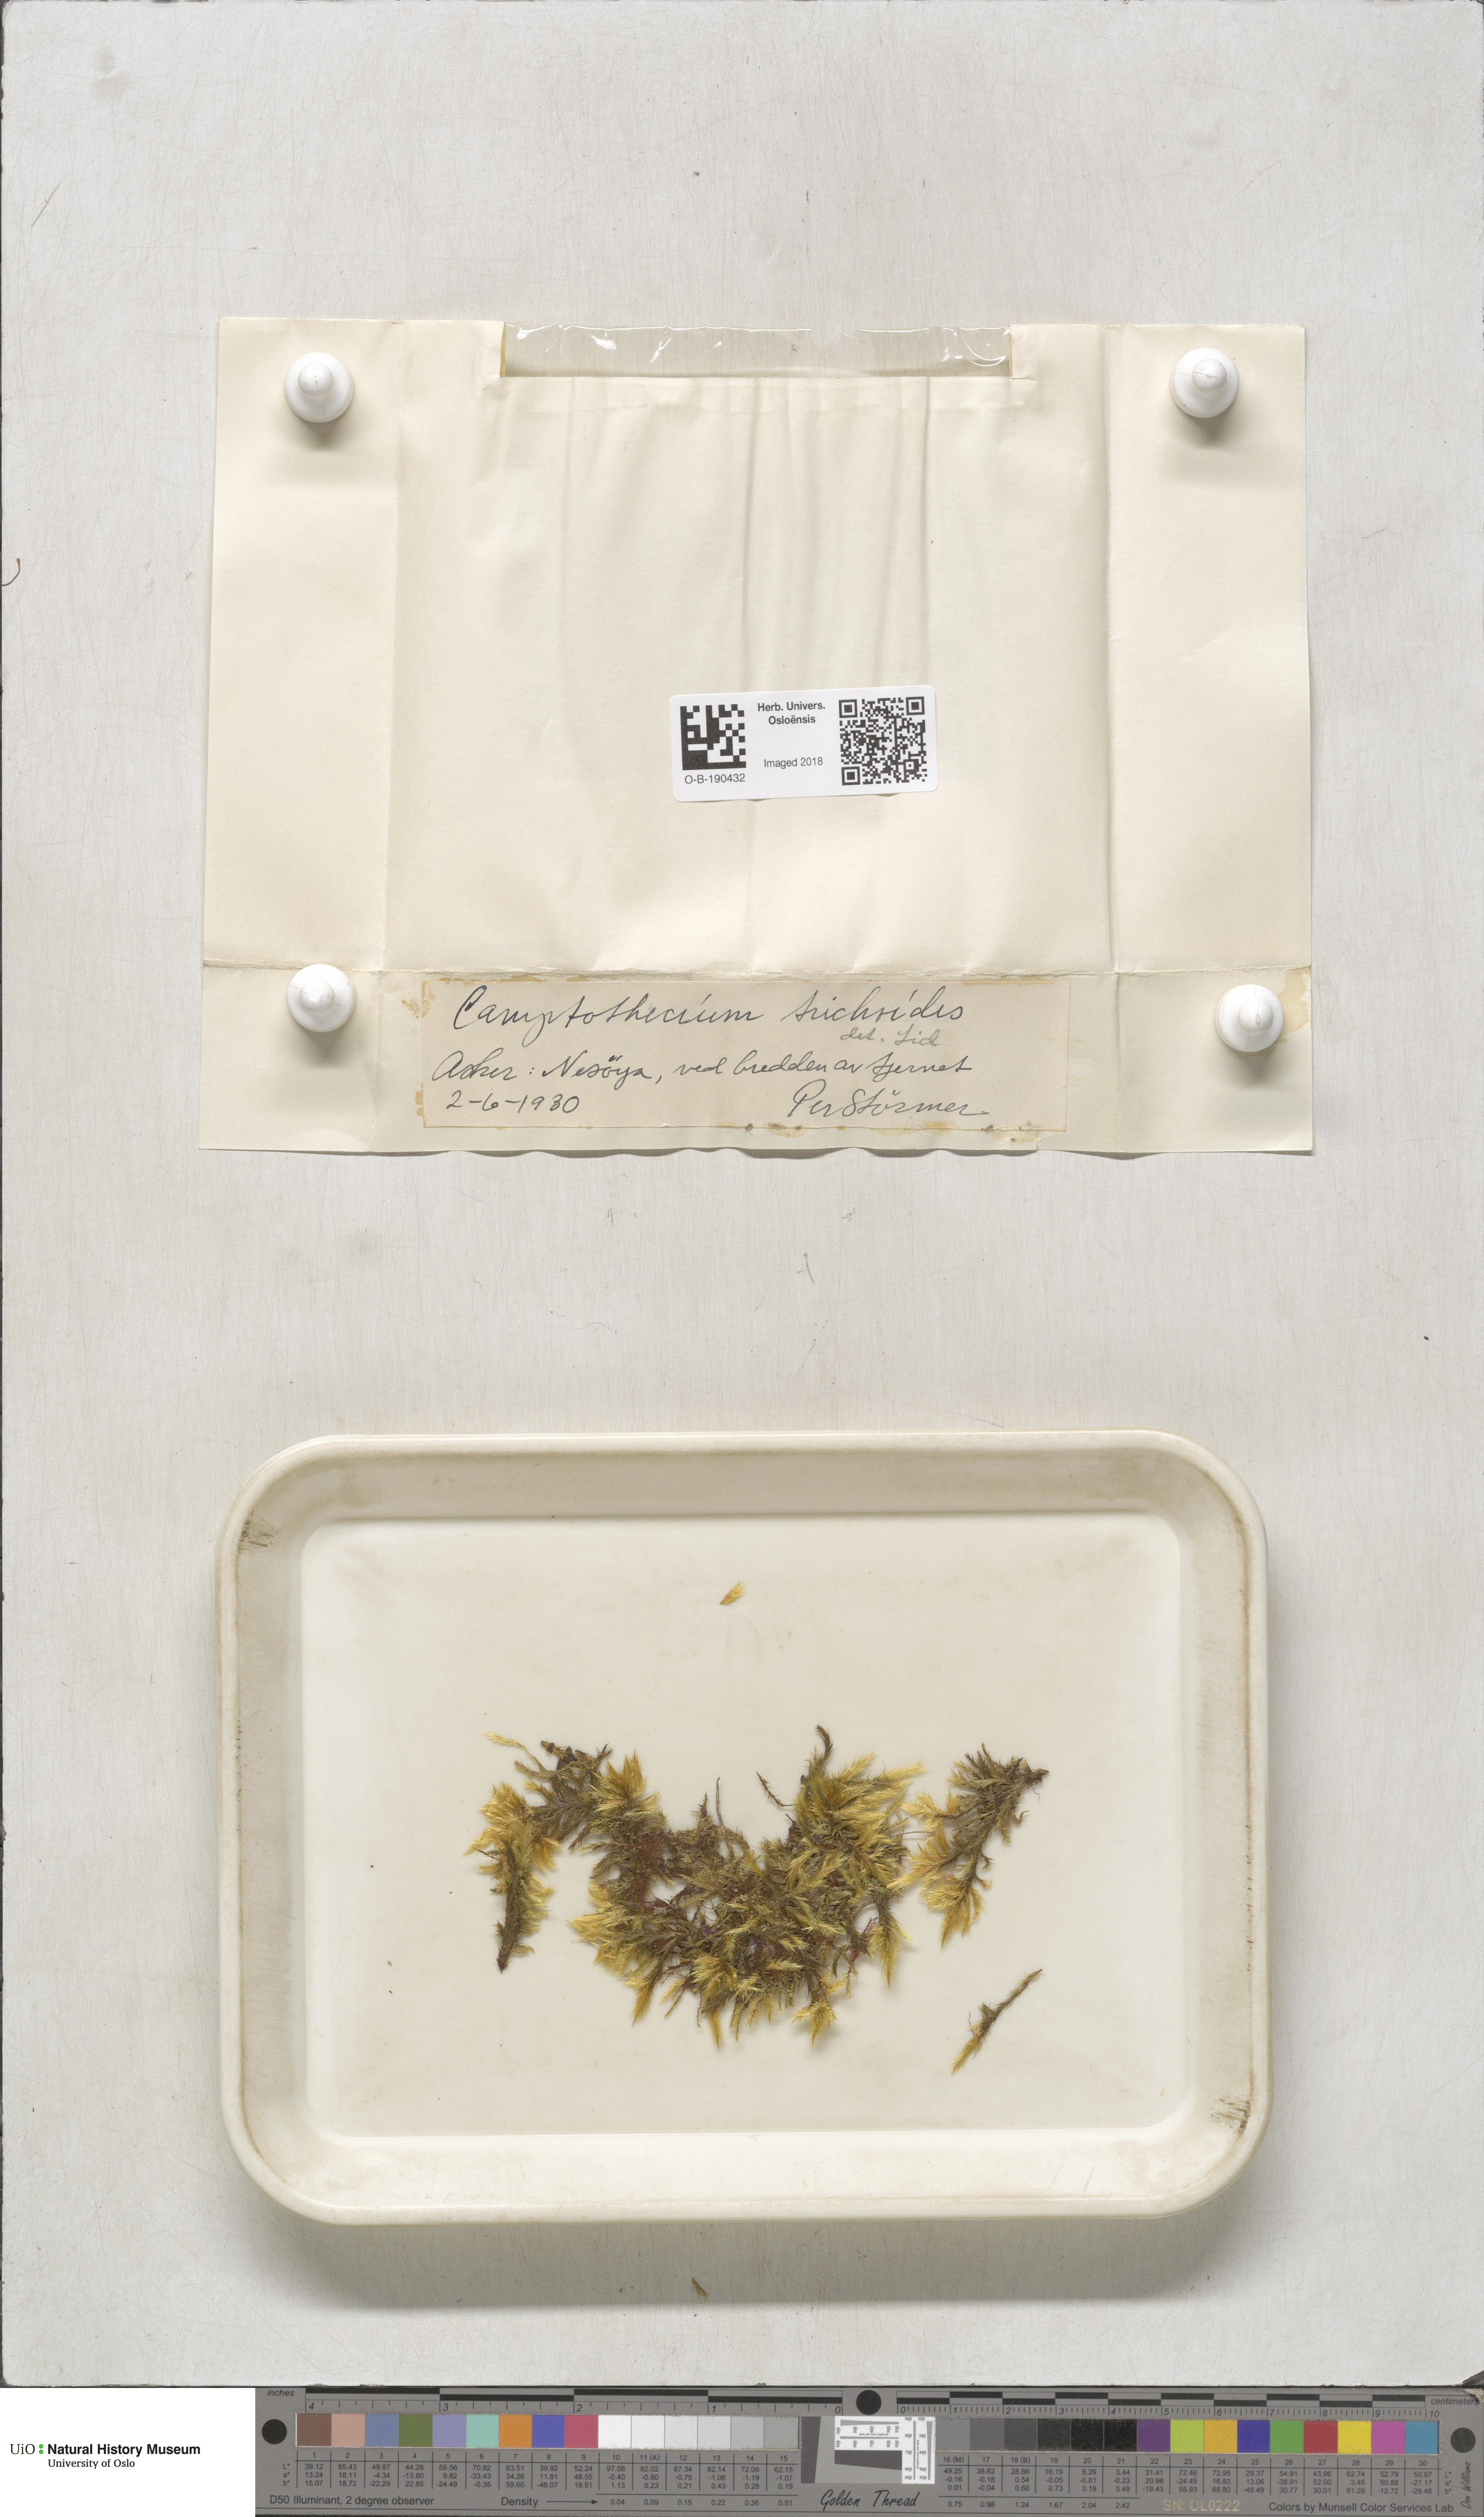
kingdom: Plantae
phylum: Bryophyta
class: Bryopsida
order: Hypnales
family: Amblystegiaceae
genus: Tomentypnum
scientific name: Tomentypnum nitens
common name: Golden fuzzy fen moss
